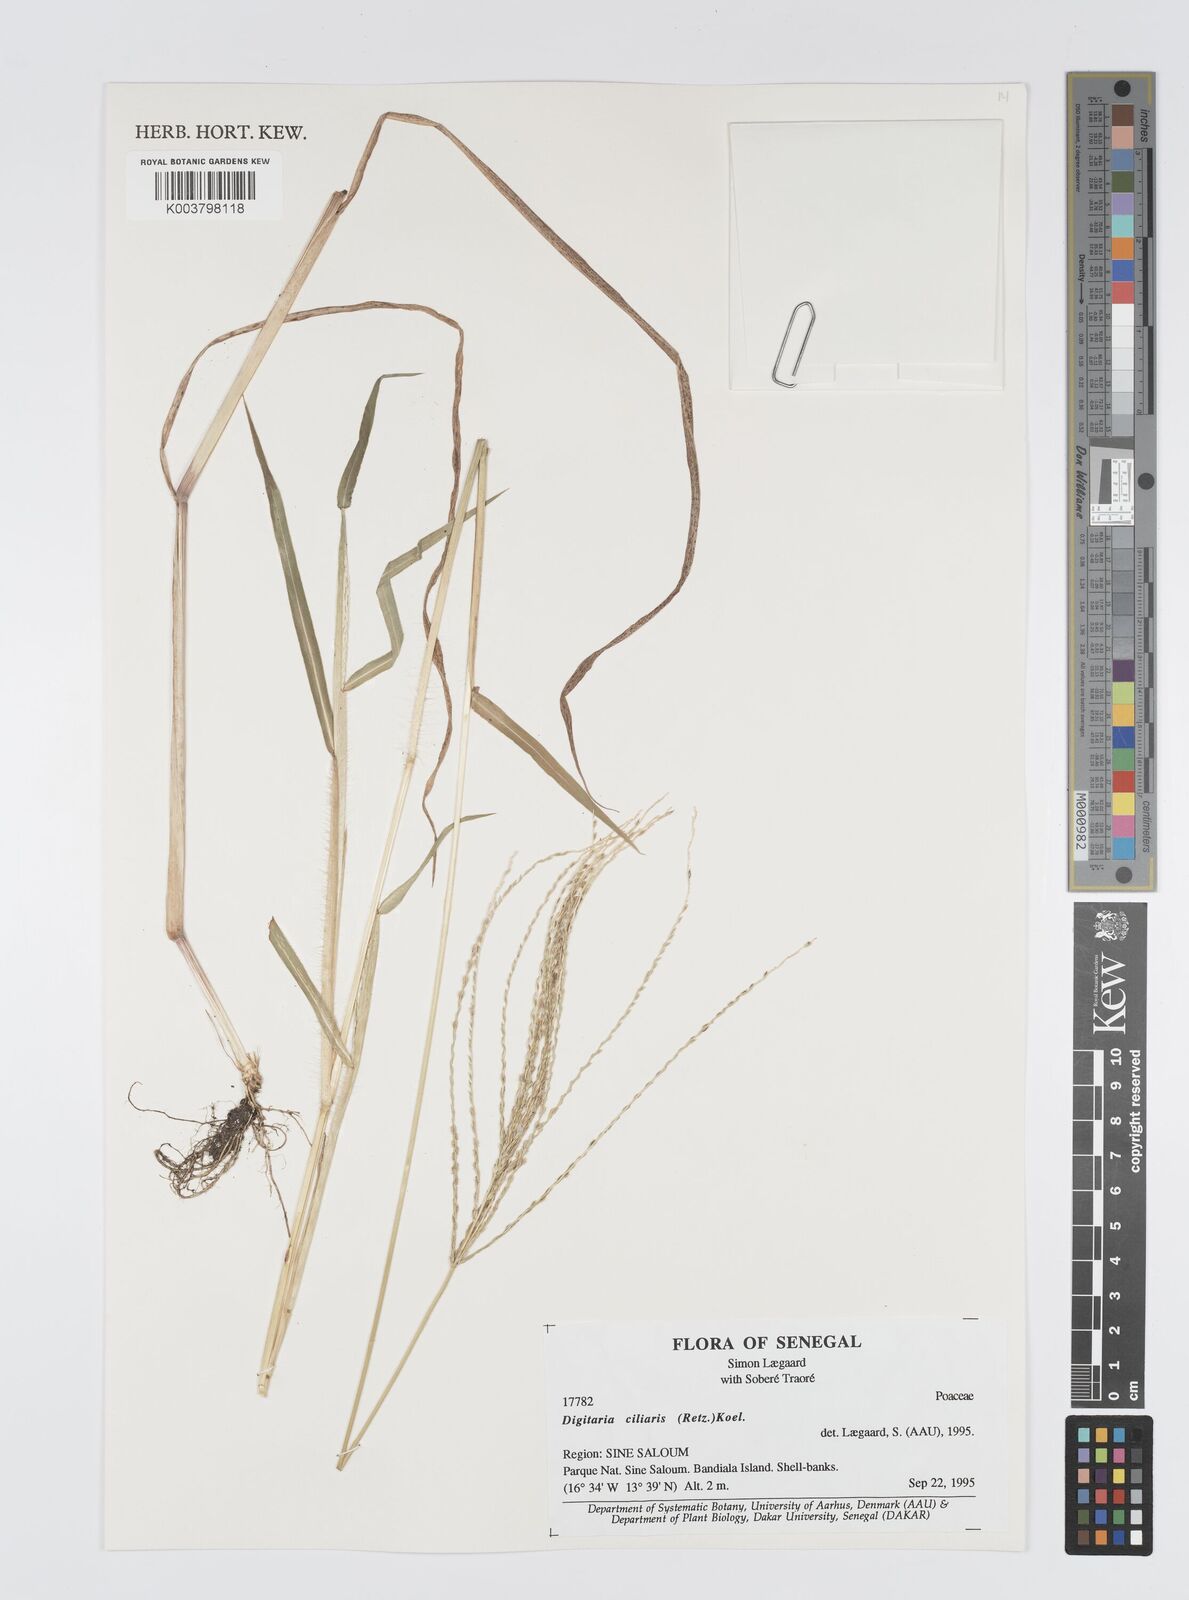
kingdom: Plantae
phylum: Tracheophyta
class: Liliopsida
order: Poales
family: Poaceae
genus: Digitaria
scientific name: Digitaria
